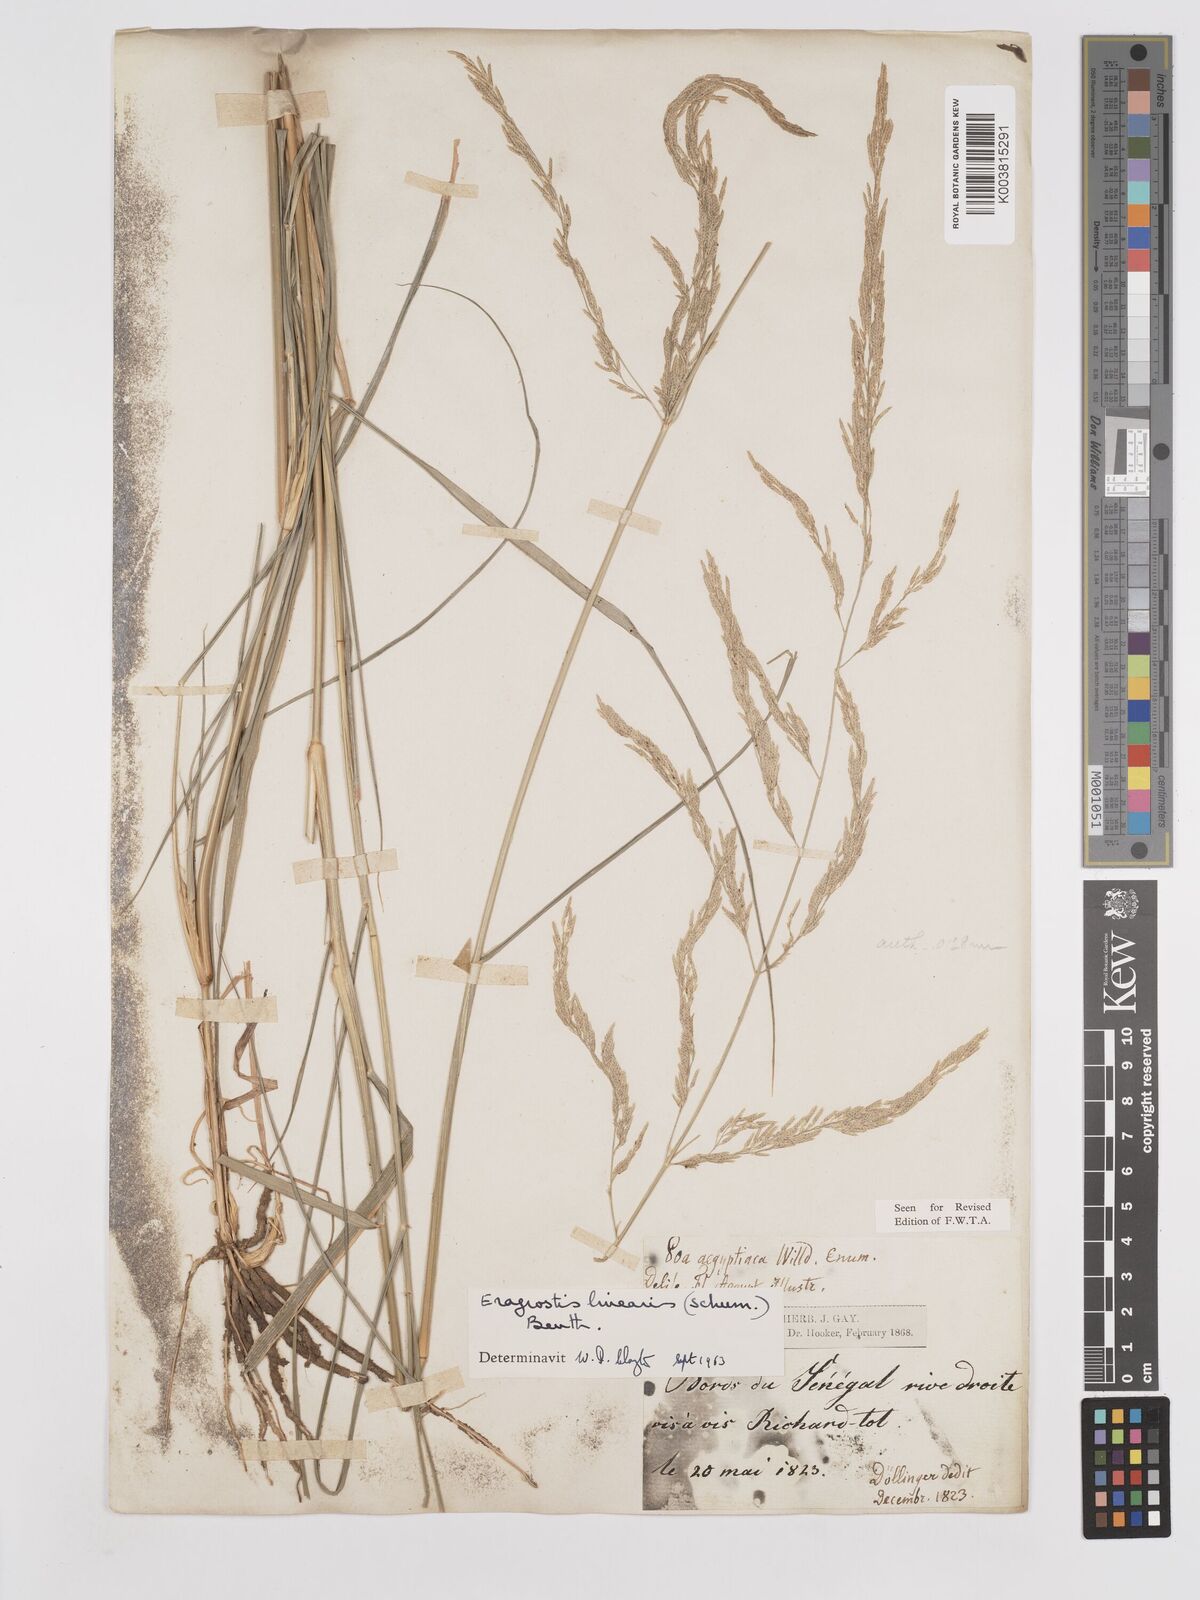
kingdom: Plantae
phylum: Tracheophyta
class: Liliopsida
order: Poales
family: Poaceae
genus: Eragrostis
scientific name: Eragrostis prolifera
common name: Dominican lovegrass
